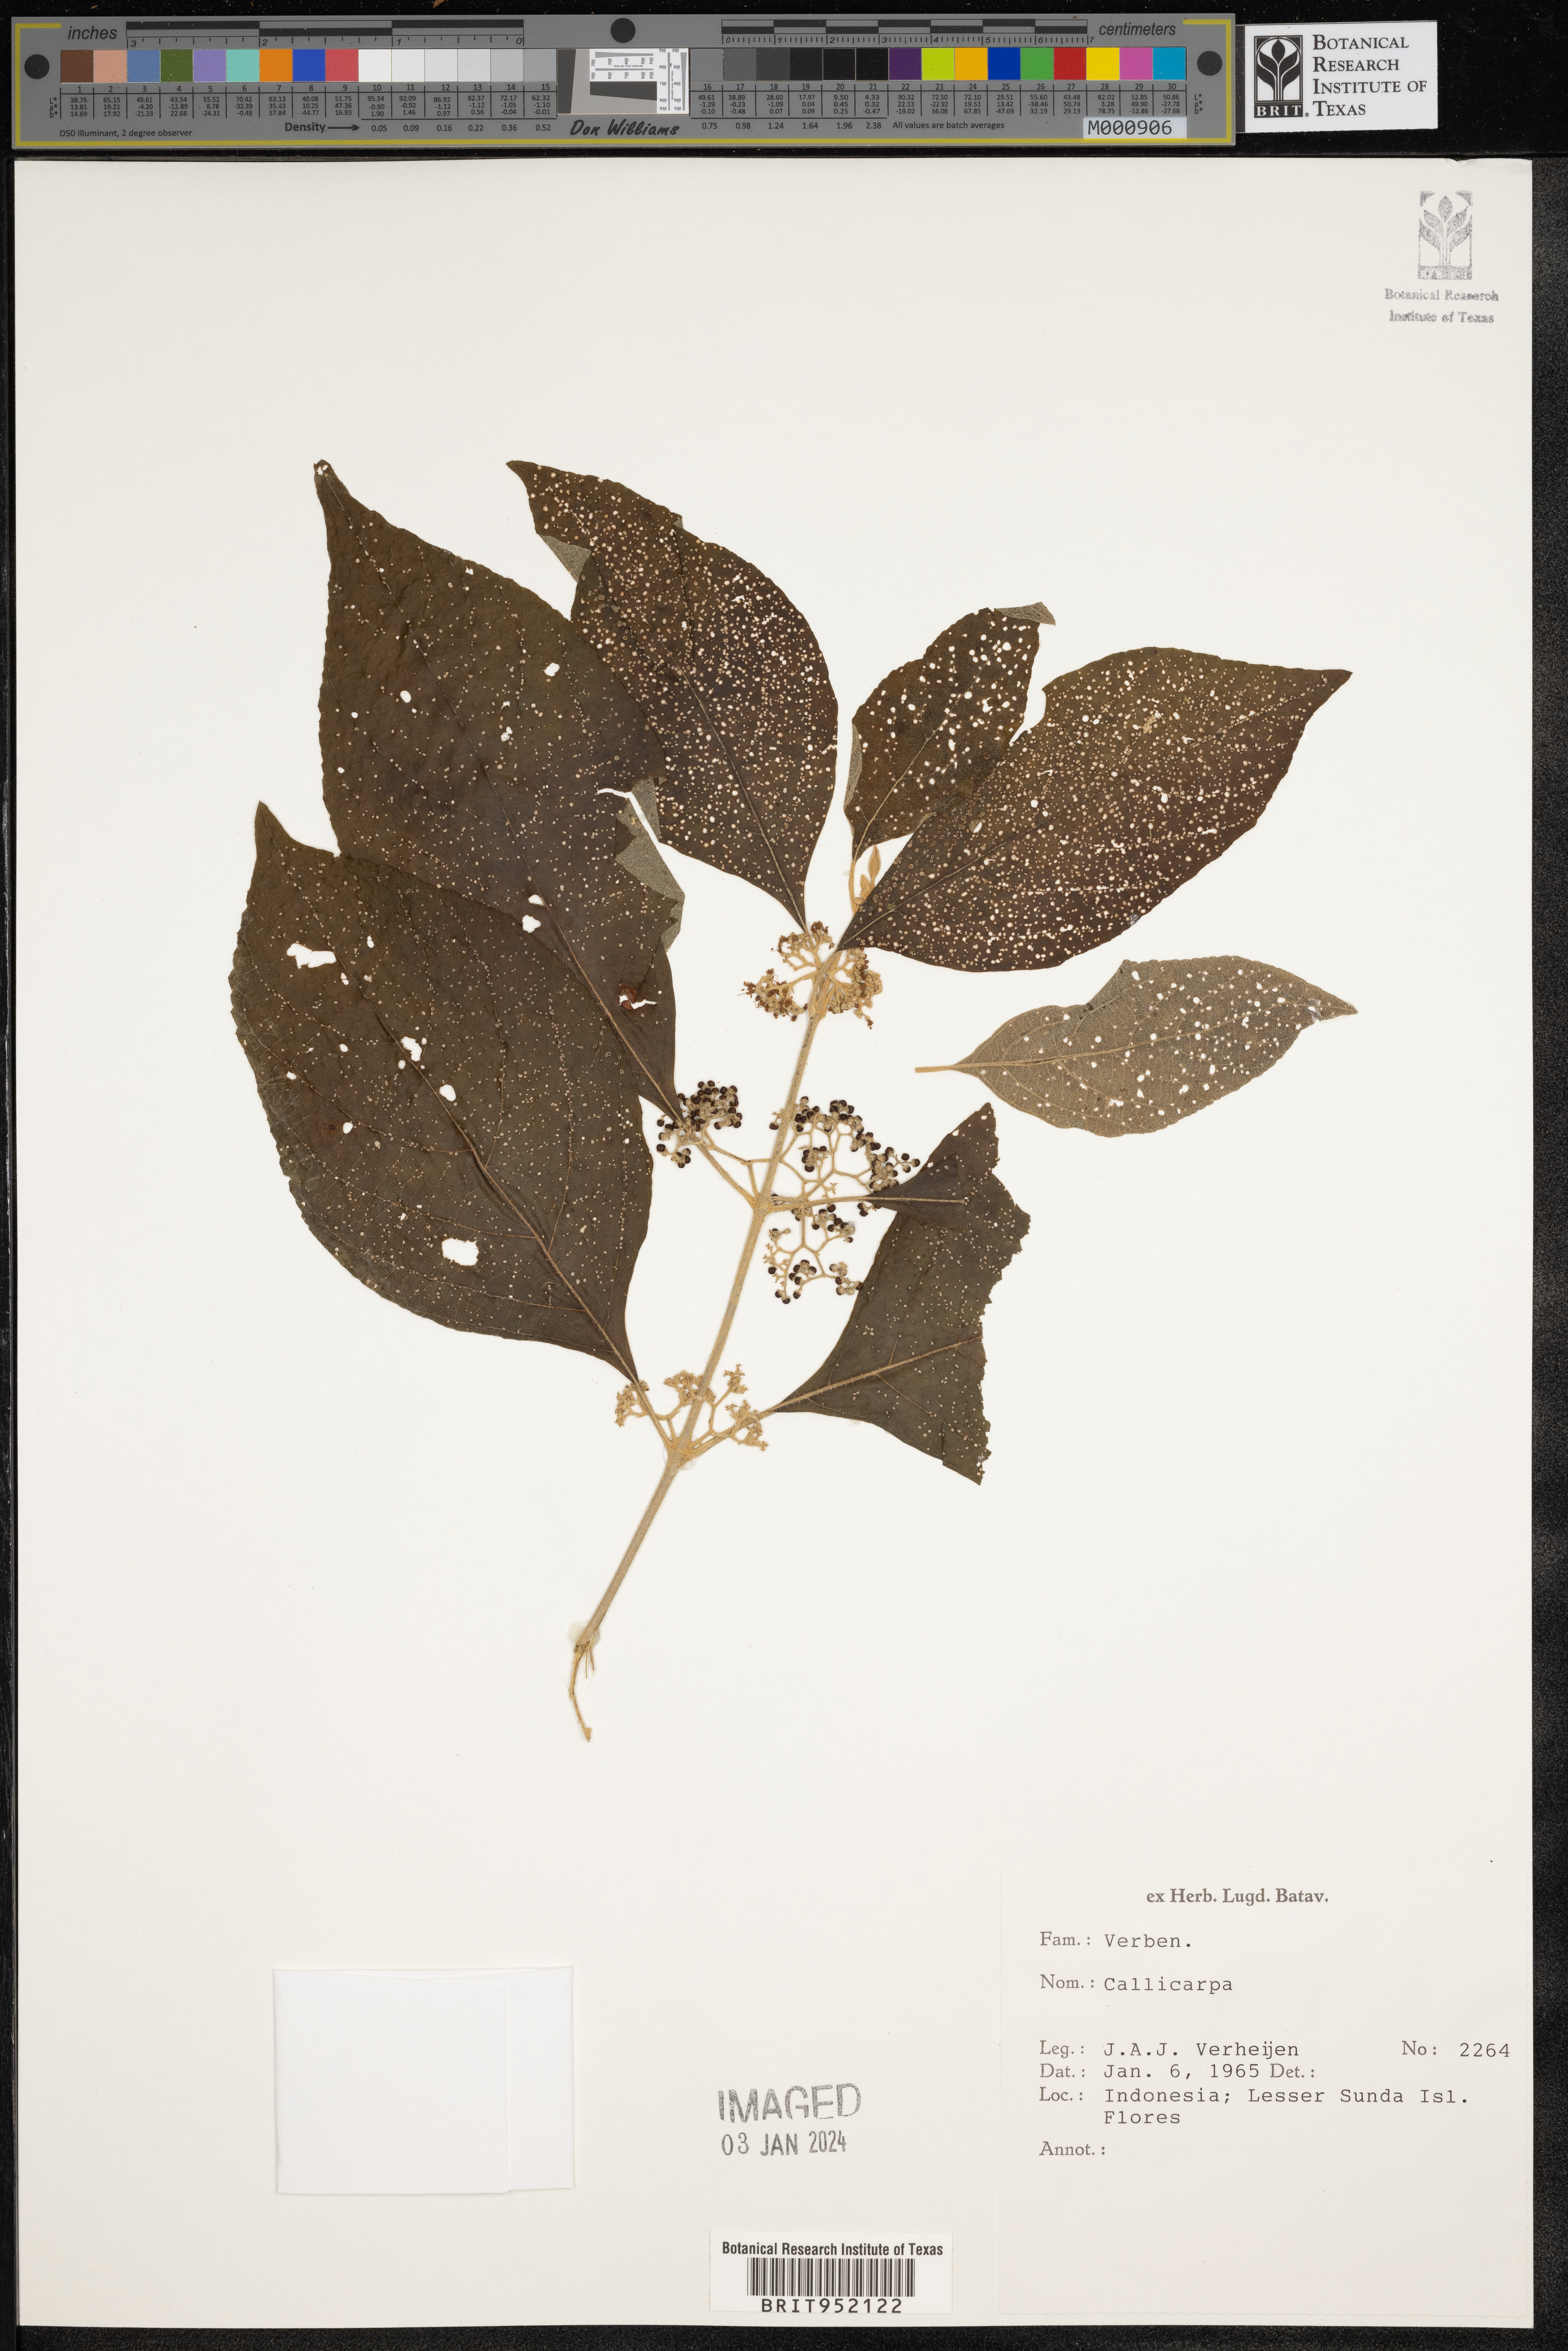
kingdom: Plantae
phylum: Tracheophyta
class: Magnoliopsida
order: Lamiales
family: Lamiaceae
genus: Callicarpa
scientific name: Callicarpa
